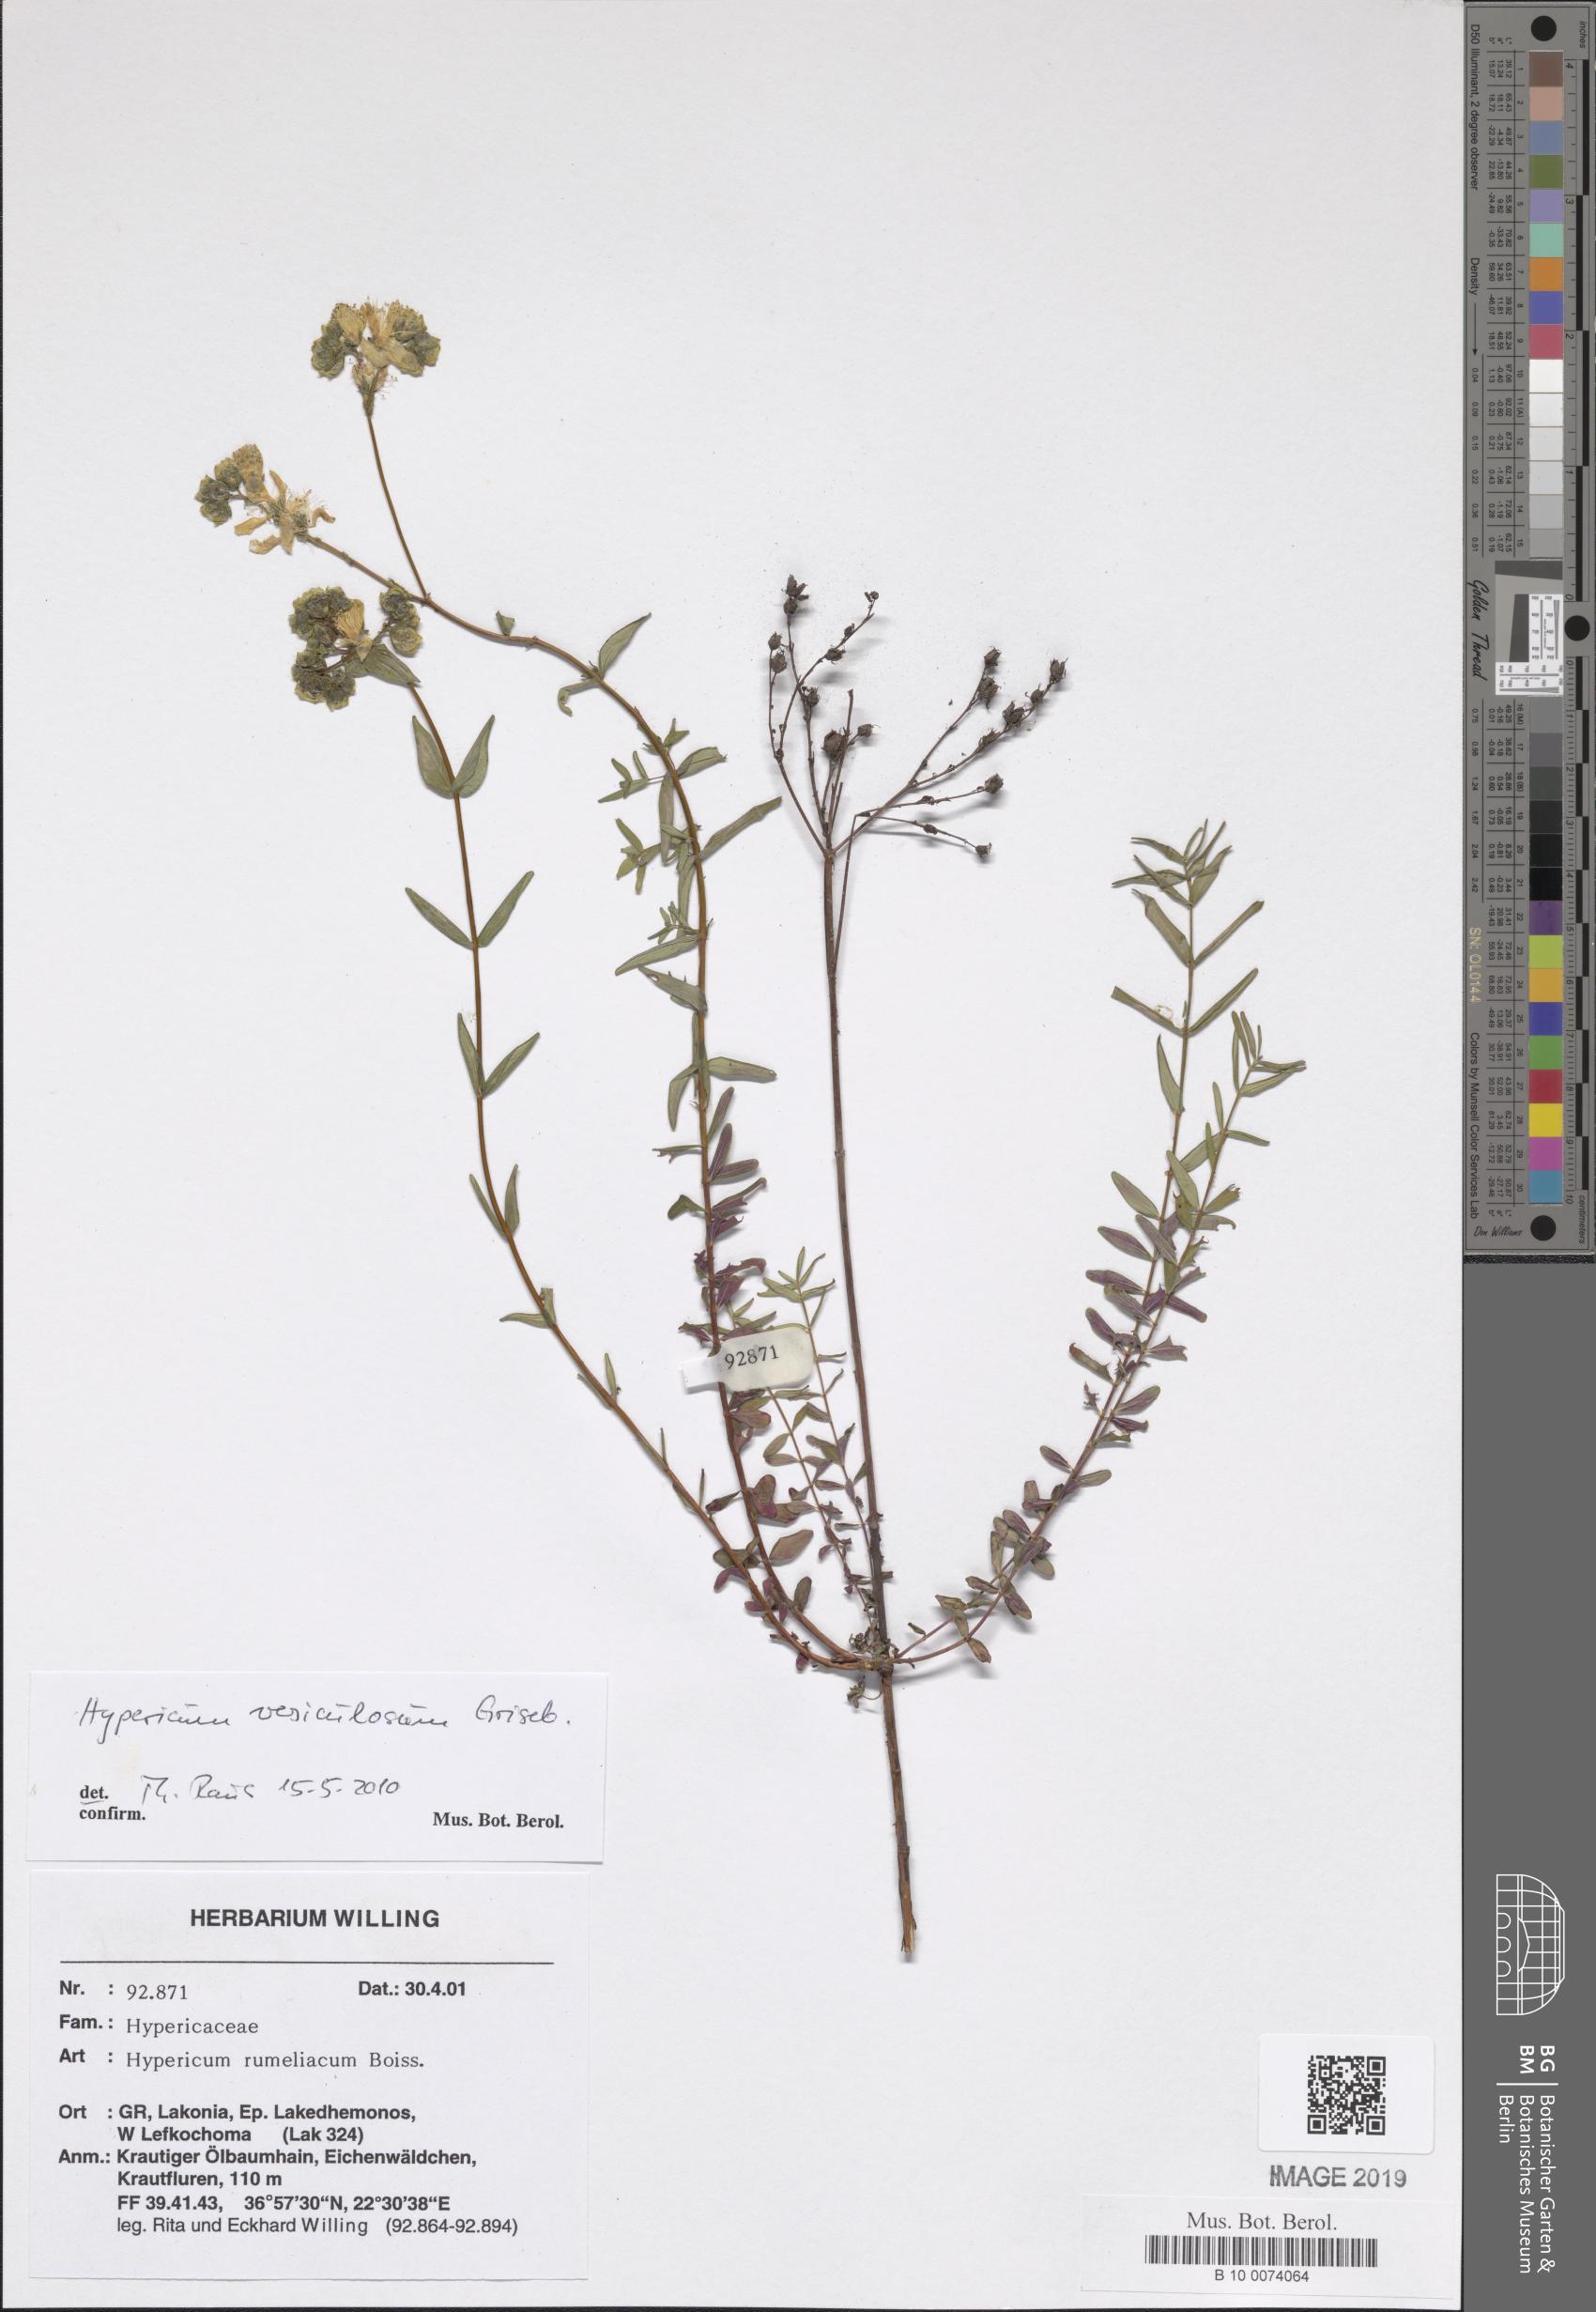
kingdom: Plantae
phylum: Tracheophyta
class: Magnoliopsida
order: Malpighiales
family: Hypericaceae
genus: Hypericum
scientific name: Hypericum perfoliatum
